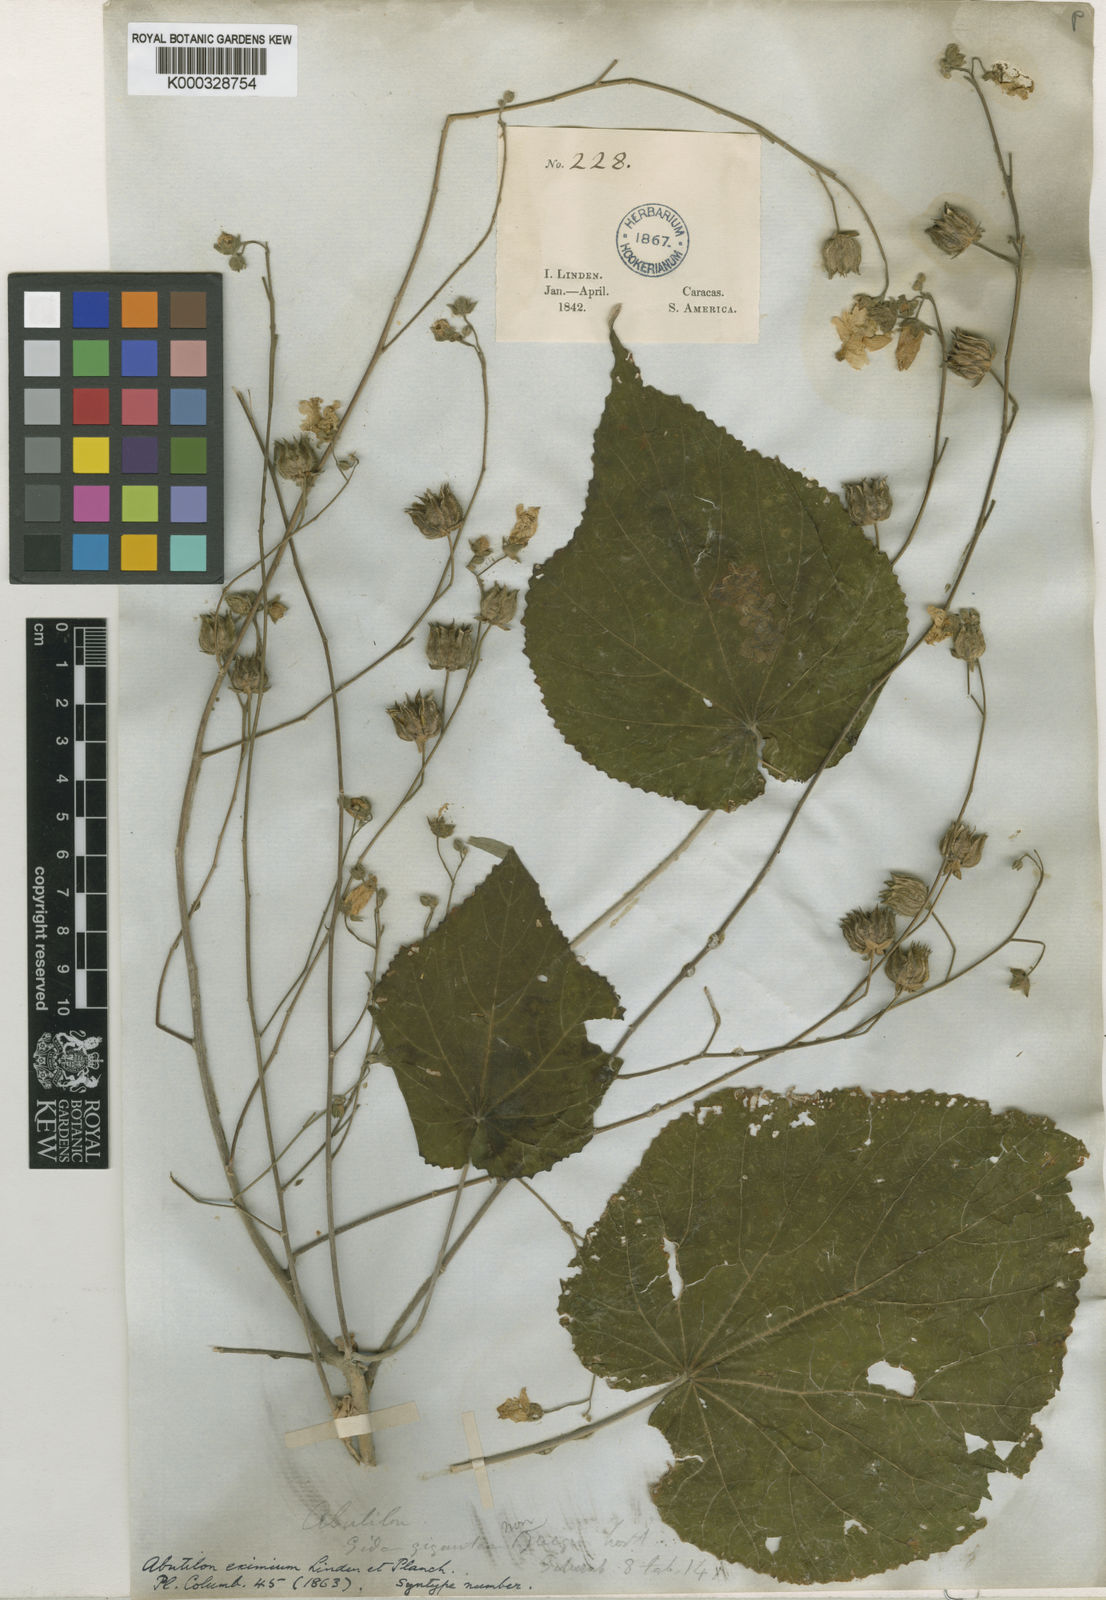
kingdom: Plantae
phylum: Tracheophyta
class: Magnoliopsida
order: Malvales
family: Malvaceae
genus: Abutilon
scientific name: Abutilon pyramidale
